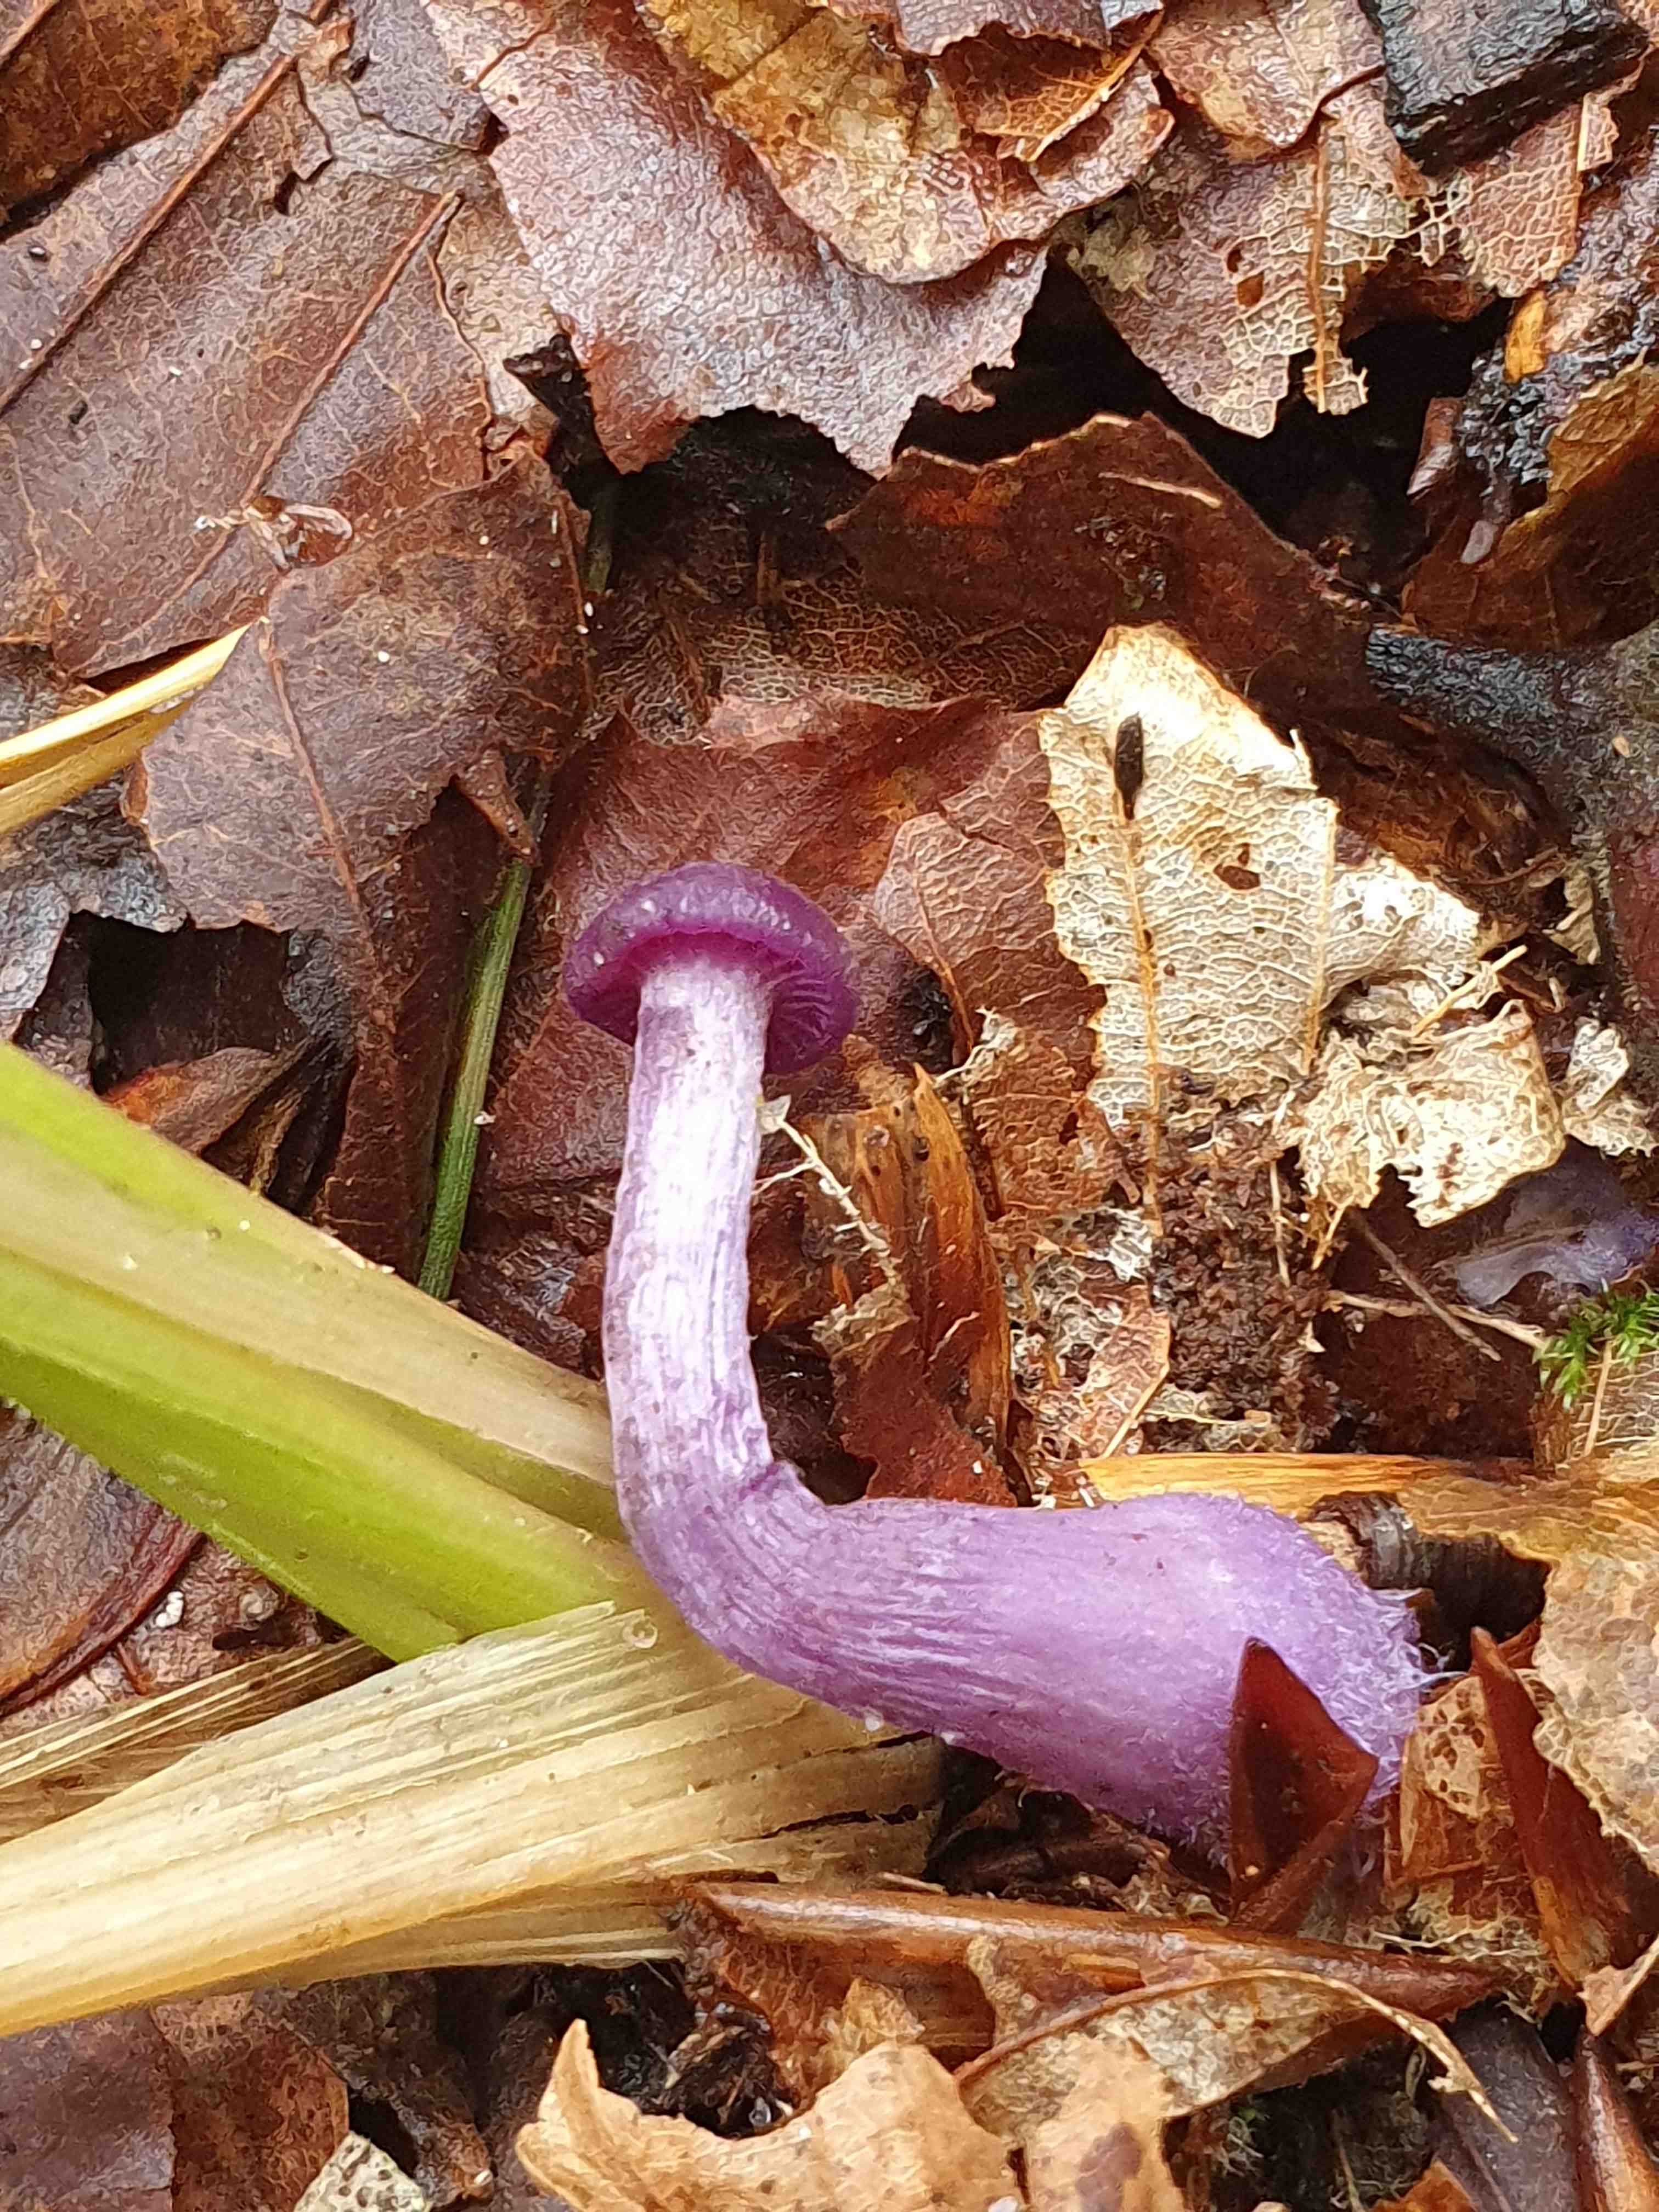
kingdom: Fungi
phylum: Basidiomycota
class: Agaricomycetes
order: Agaricales
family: Hydnangiaceae
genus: Laccaria
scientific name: Laccaria amethystina
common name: violet ametysthat
